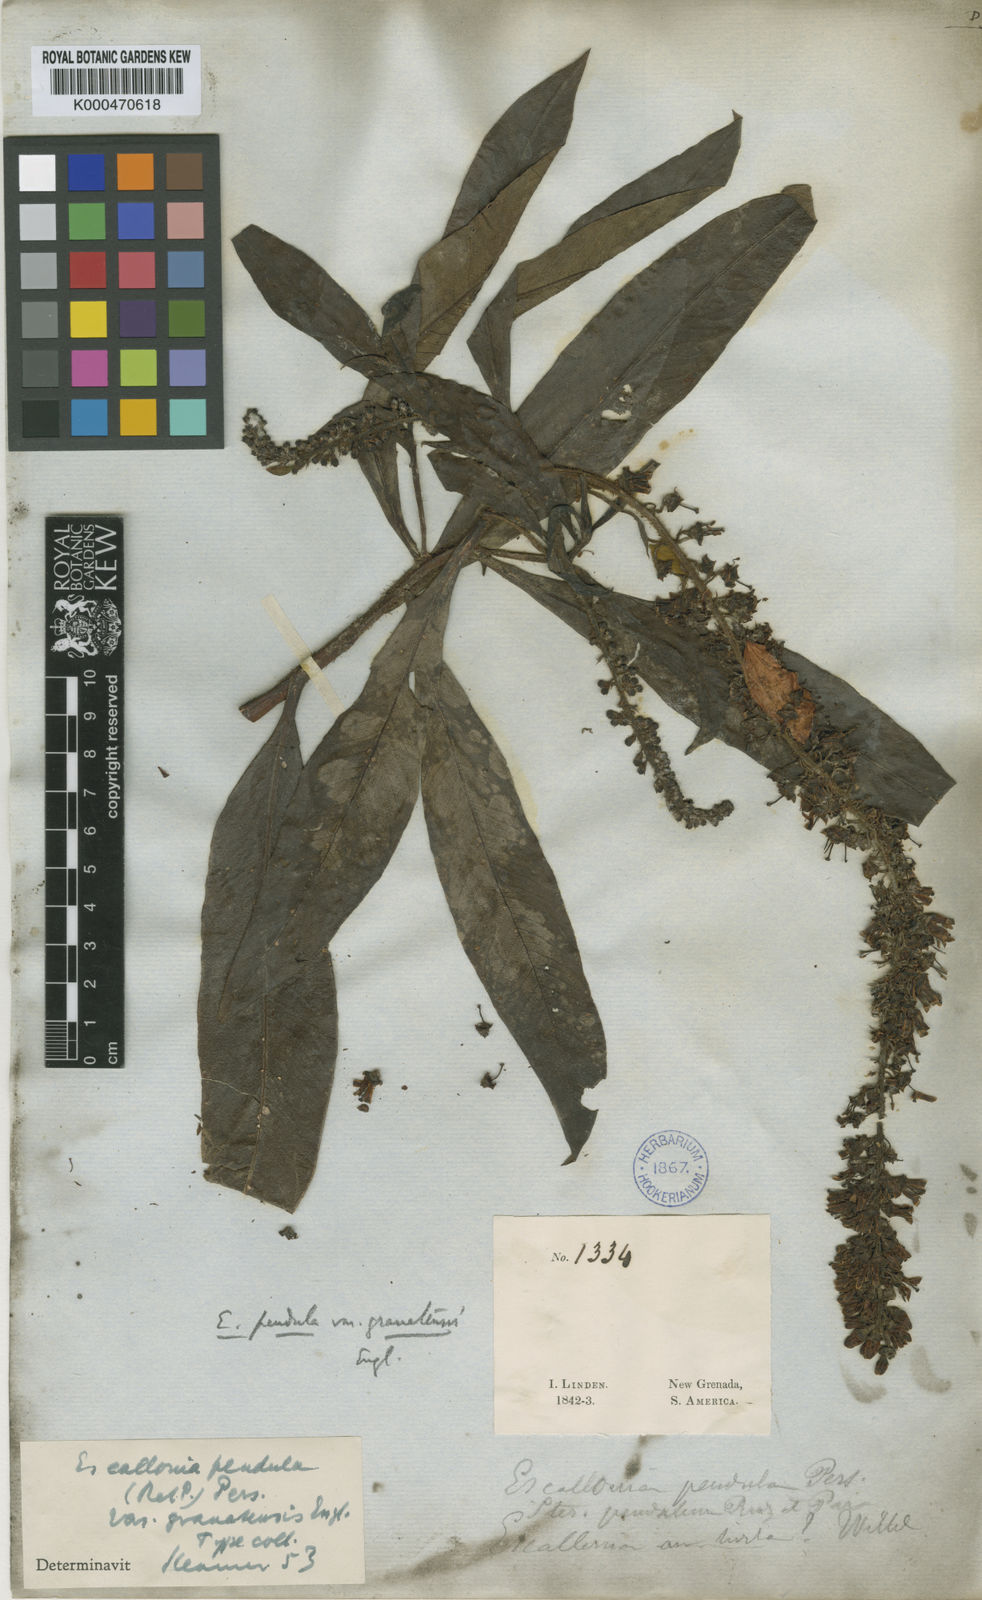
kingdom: Plantae
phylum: Tracheophyta
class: Magnoliopsida
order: Escalloniales
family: Escalloniaceae
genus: Escallonia
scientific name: Escallonia pendula
